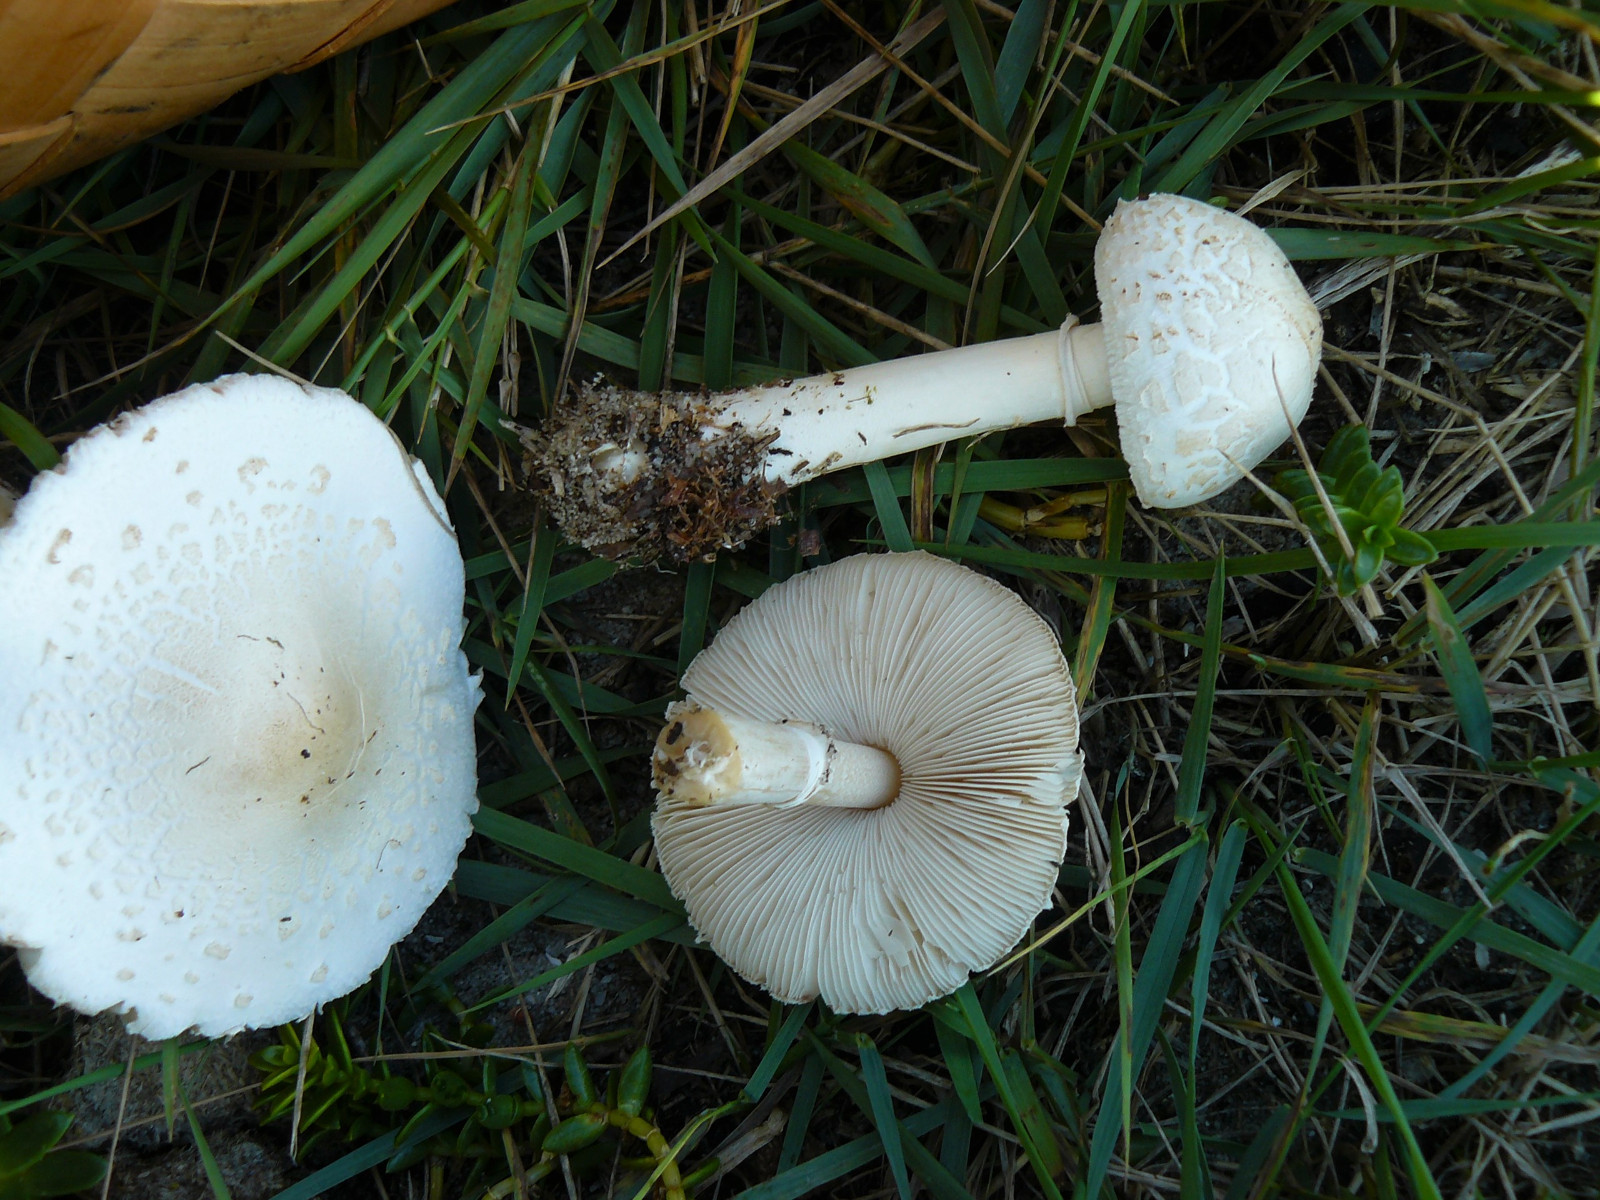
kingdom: Fungi
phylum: Basidiomycota
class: Agaricomycetes
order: Agaricales
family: Agaricaceae
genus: Macrolepiota
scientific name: Macrolepiota excoriata
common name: mark-kæmpeparasolhat
